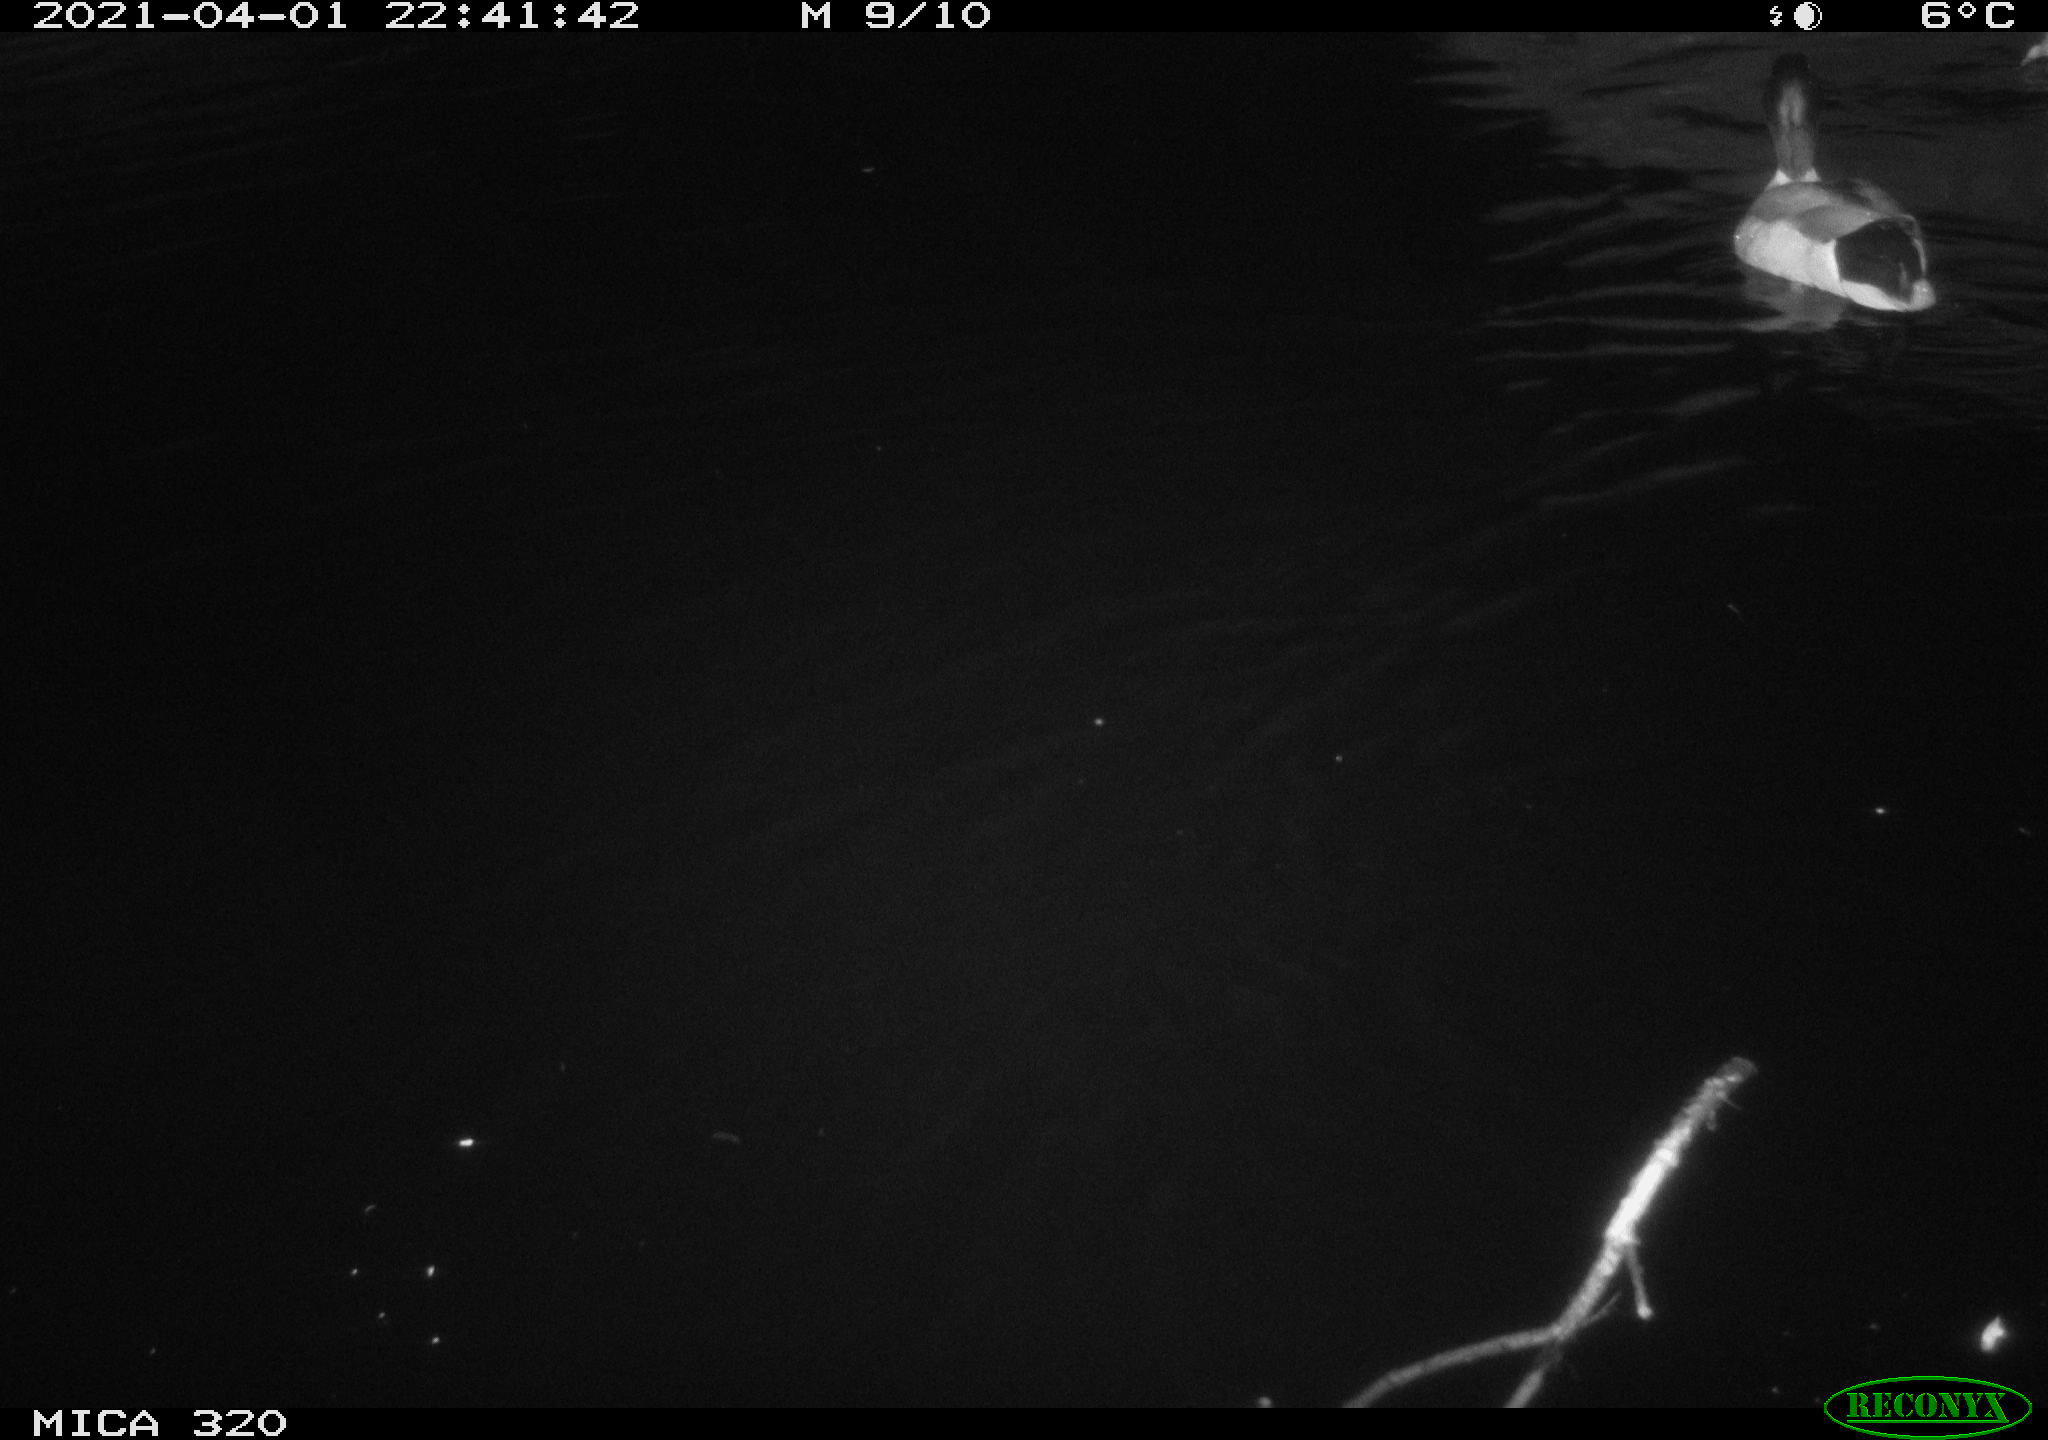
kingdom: Animalia
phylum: Chordata
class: Aves
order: Anseriformes
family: Anatidae
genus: Anas
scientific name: Anas platyrhynchos
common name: Mallard
